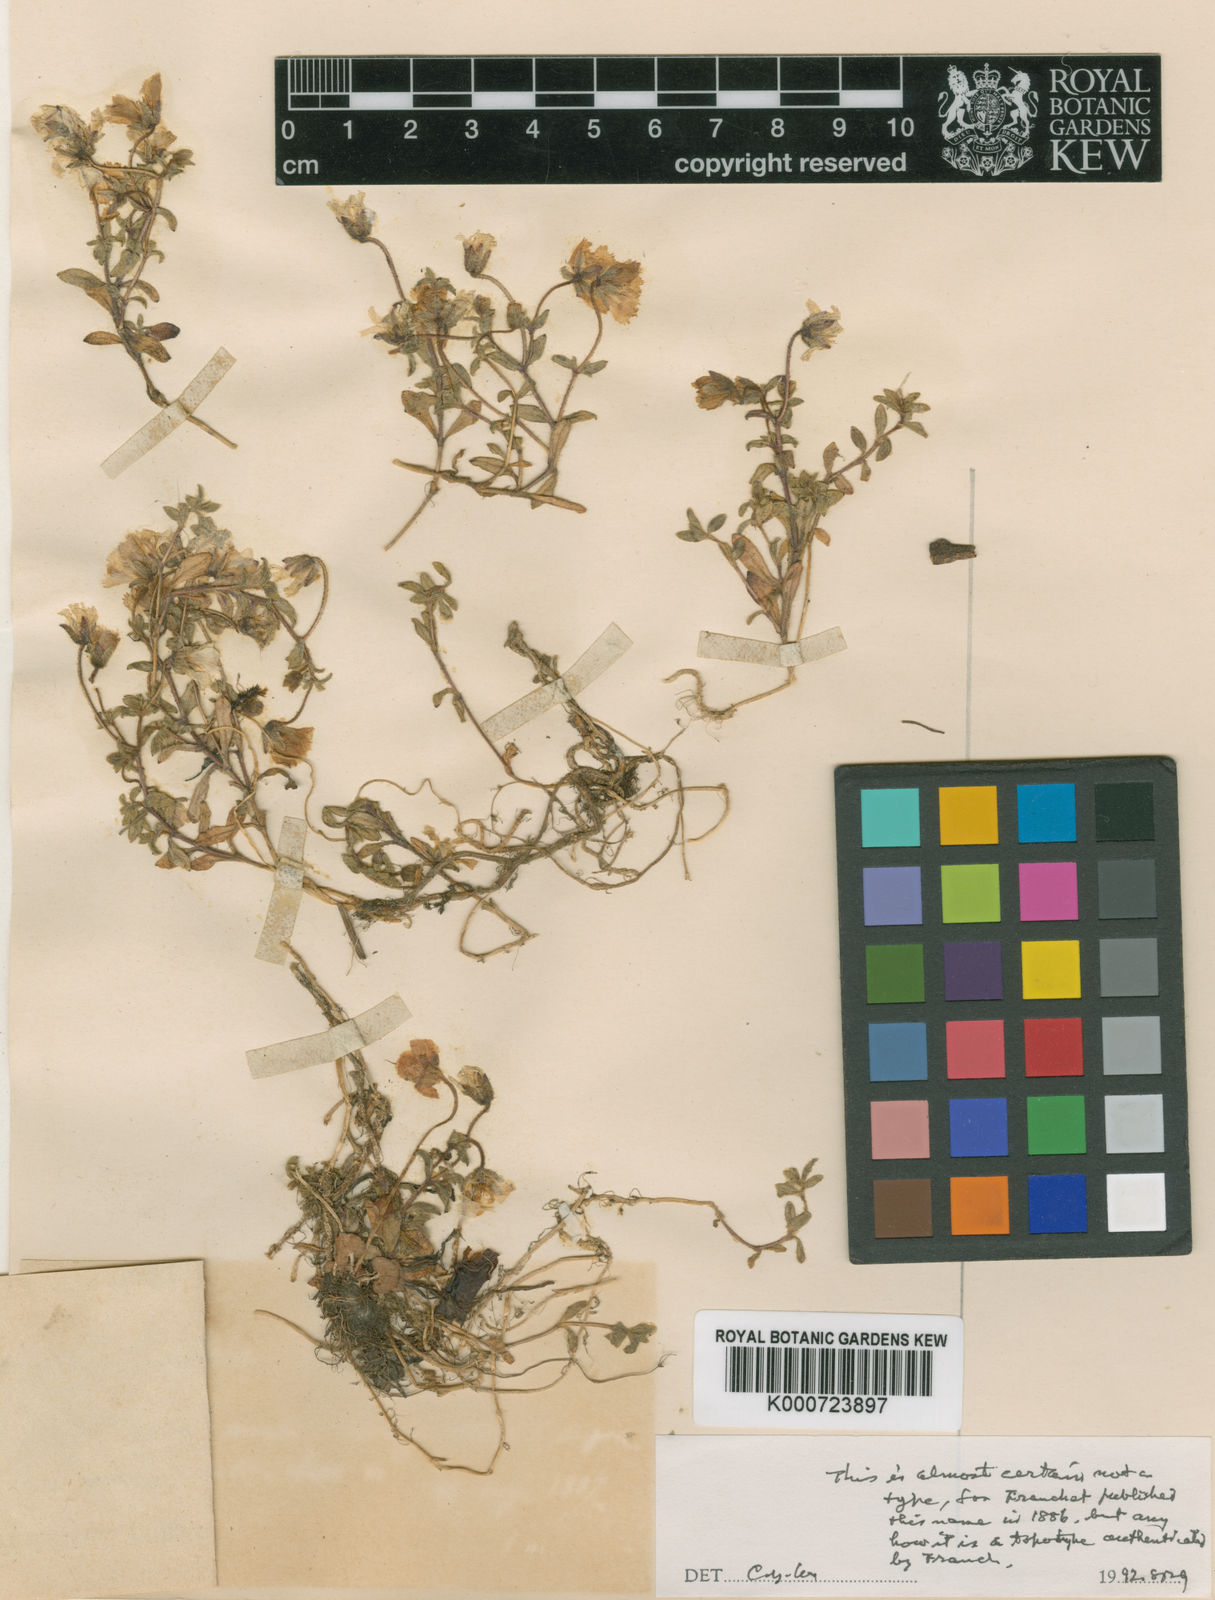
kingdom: Plantae
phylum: Tracheophyta
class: Magnoliopsida
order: Caryophyllales
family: Caryophyllaceae
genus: Odontostemma
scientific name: Odontostemma delavayi
